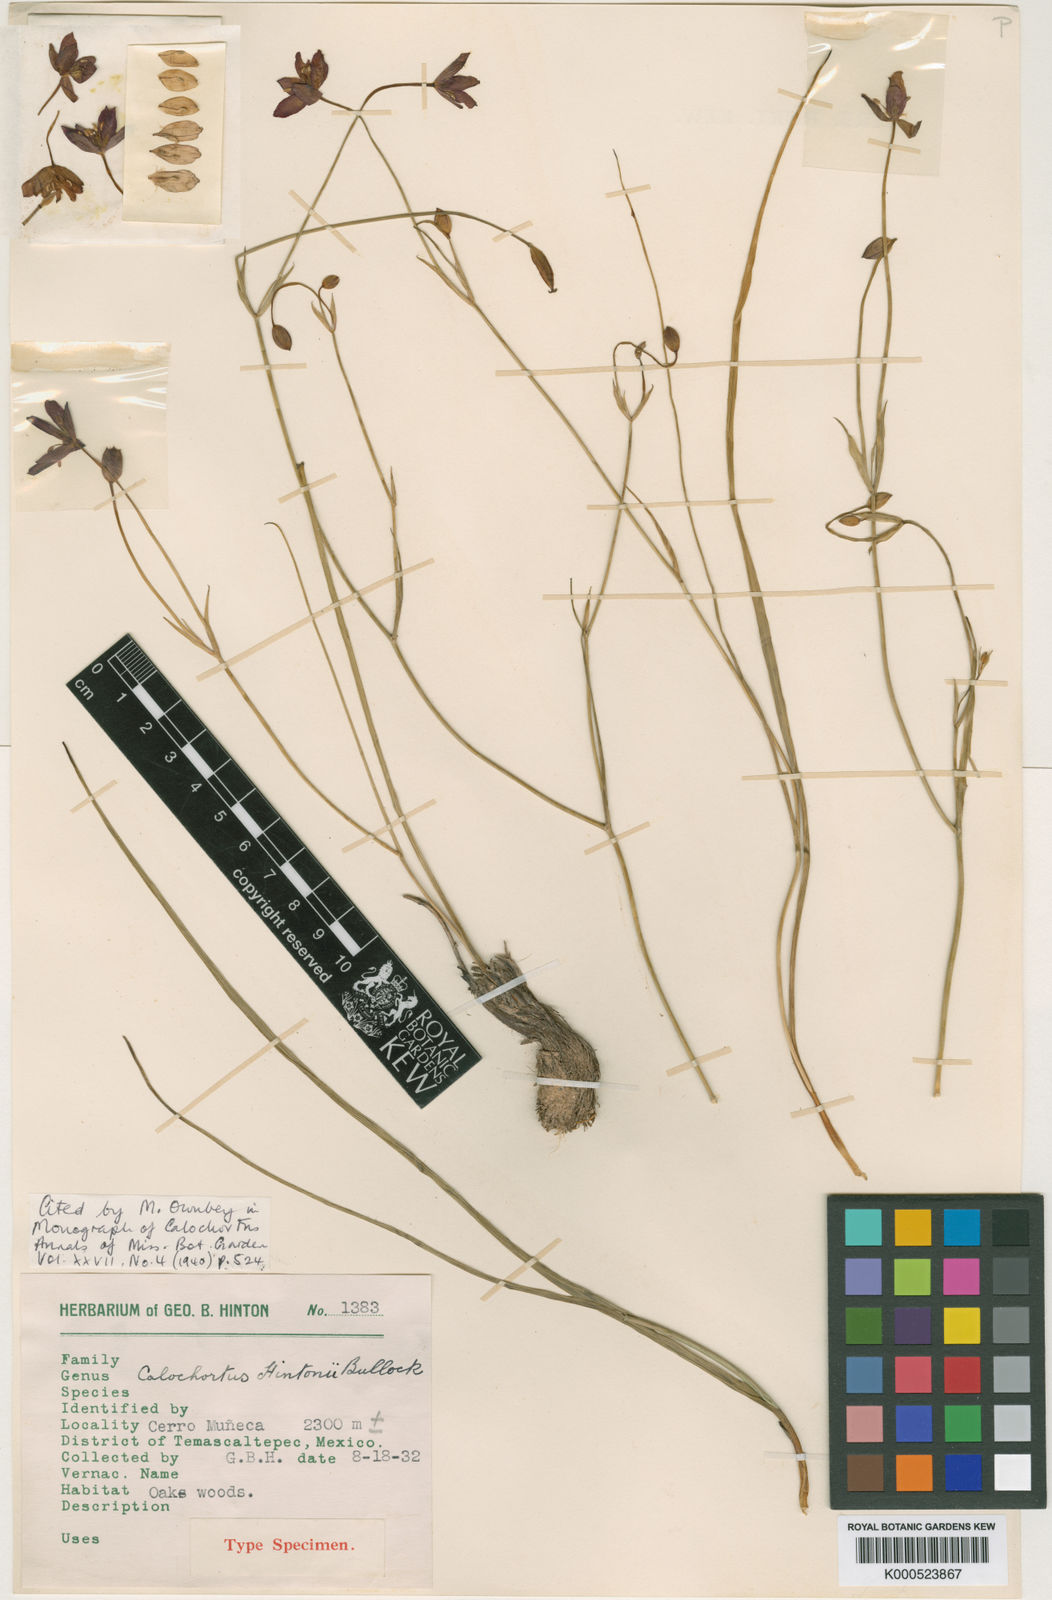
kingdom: Plantae
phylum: Tracheophyta
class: Liliopsida
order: Liliales
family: Liliaceae
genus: Calochortus
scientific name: Calochortus fuscus
